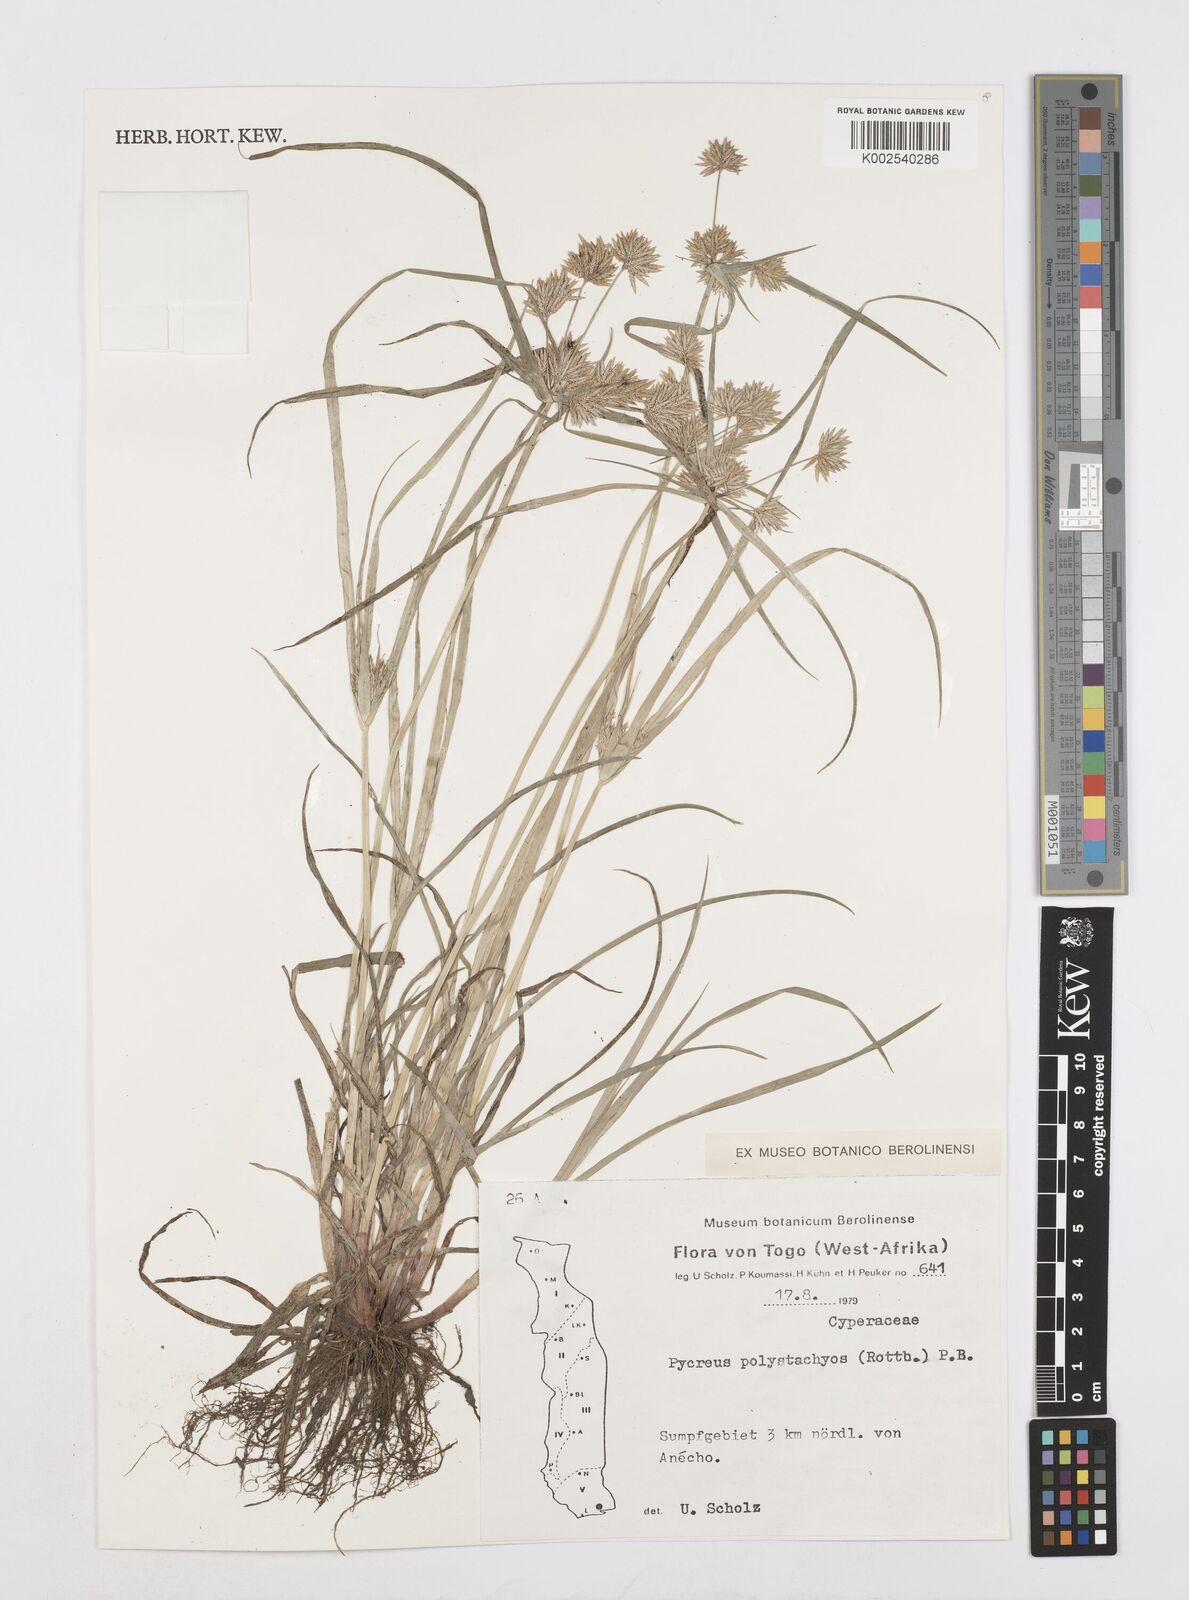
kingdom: Plantae
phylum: Tracheophyta
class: Liliopsida
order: Poales
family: Cyperaceae
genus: Cyperus
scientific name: Cyperus polystachyos
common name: Bunchy flat sedge
